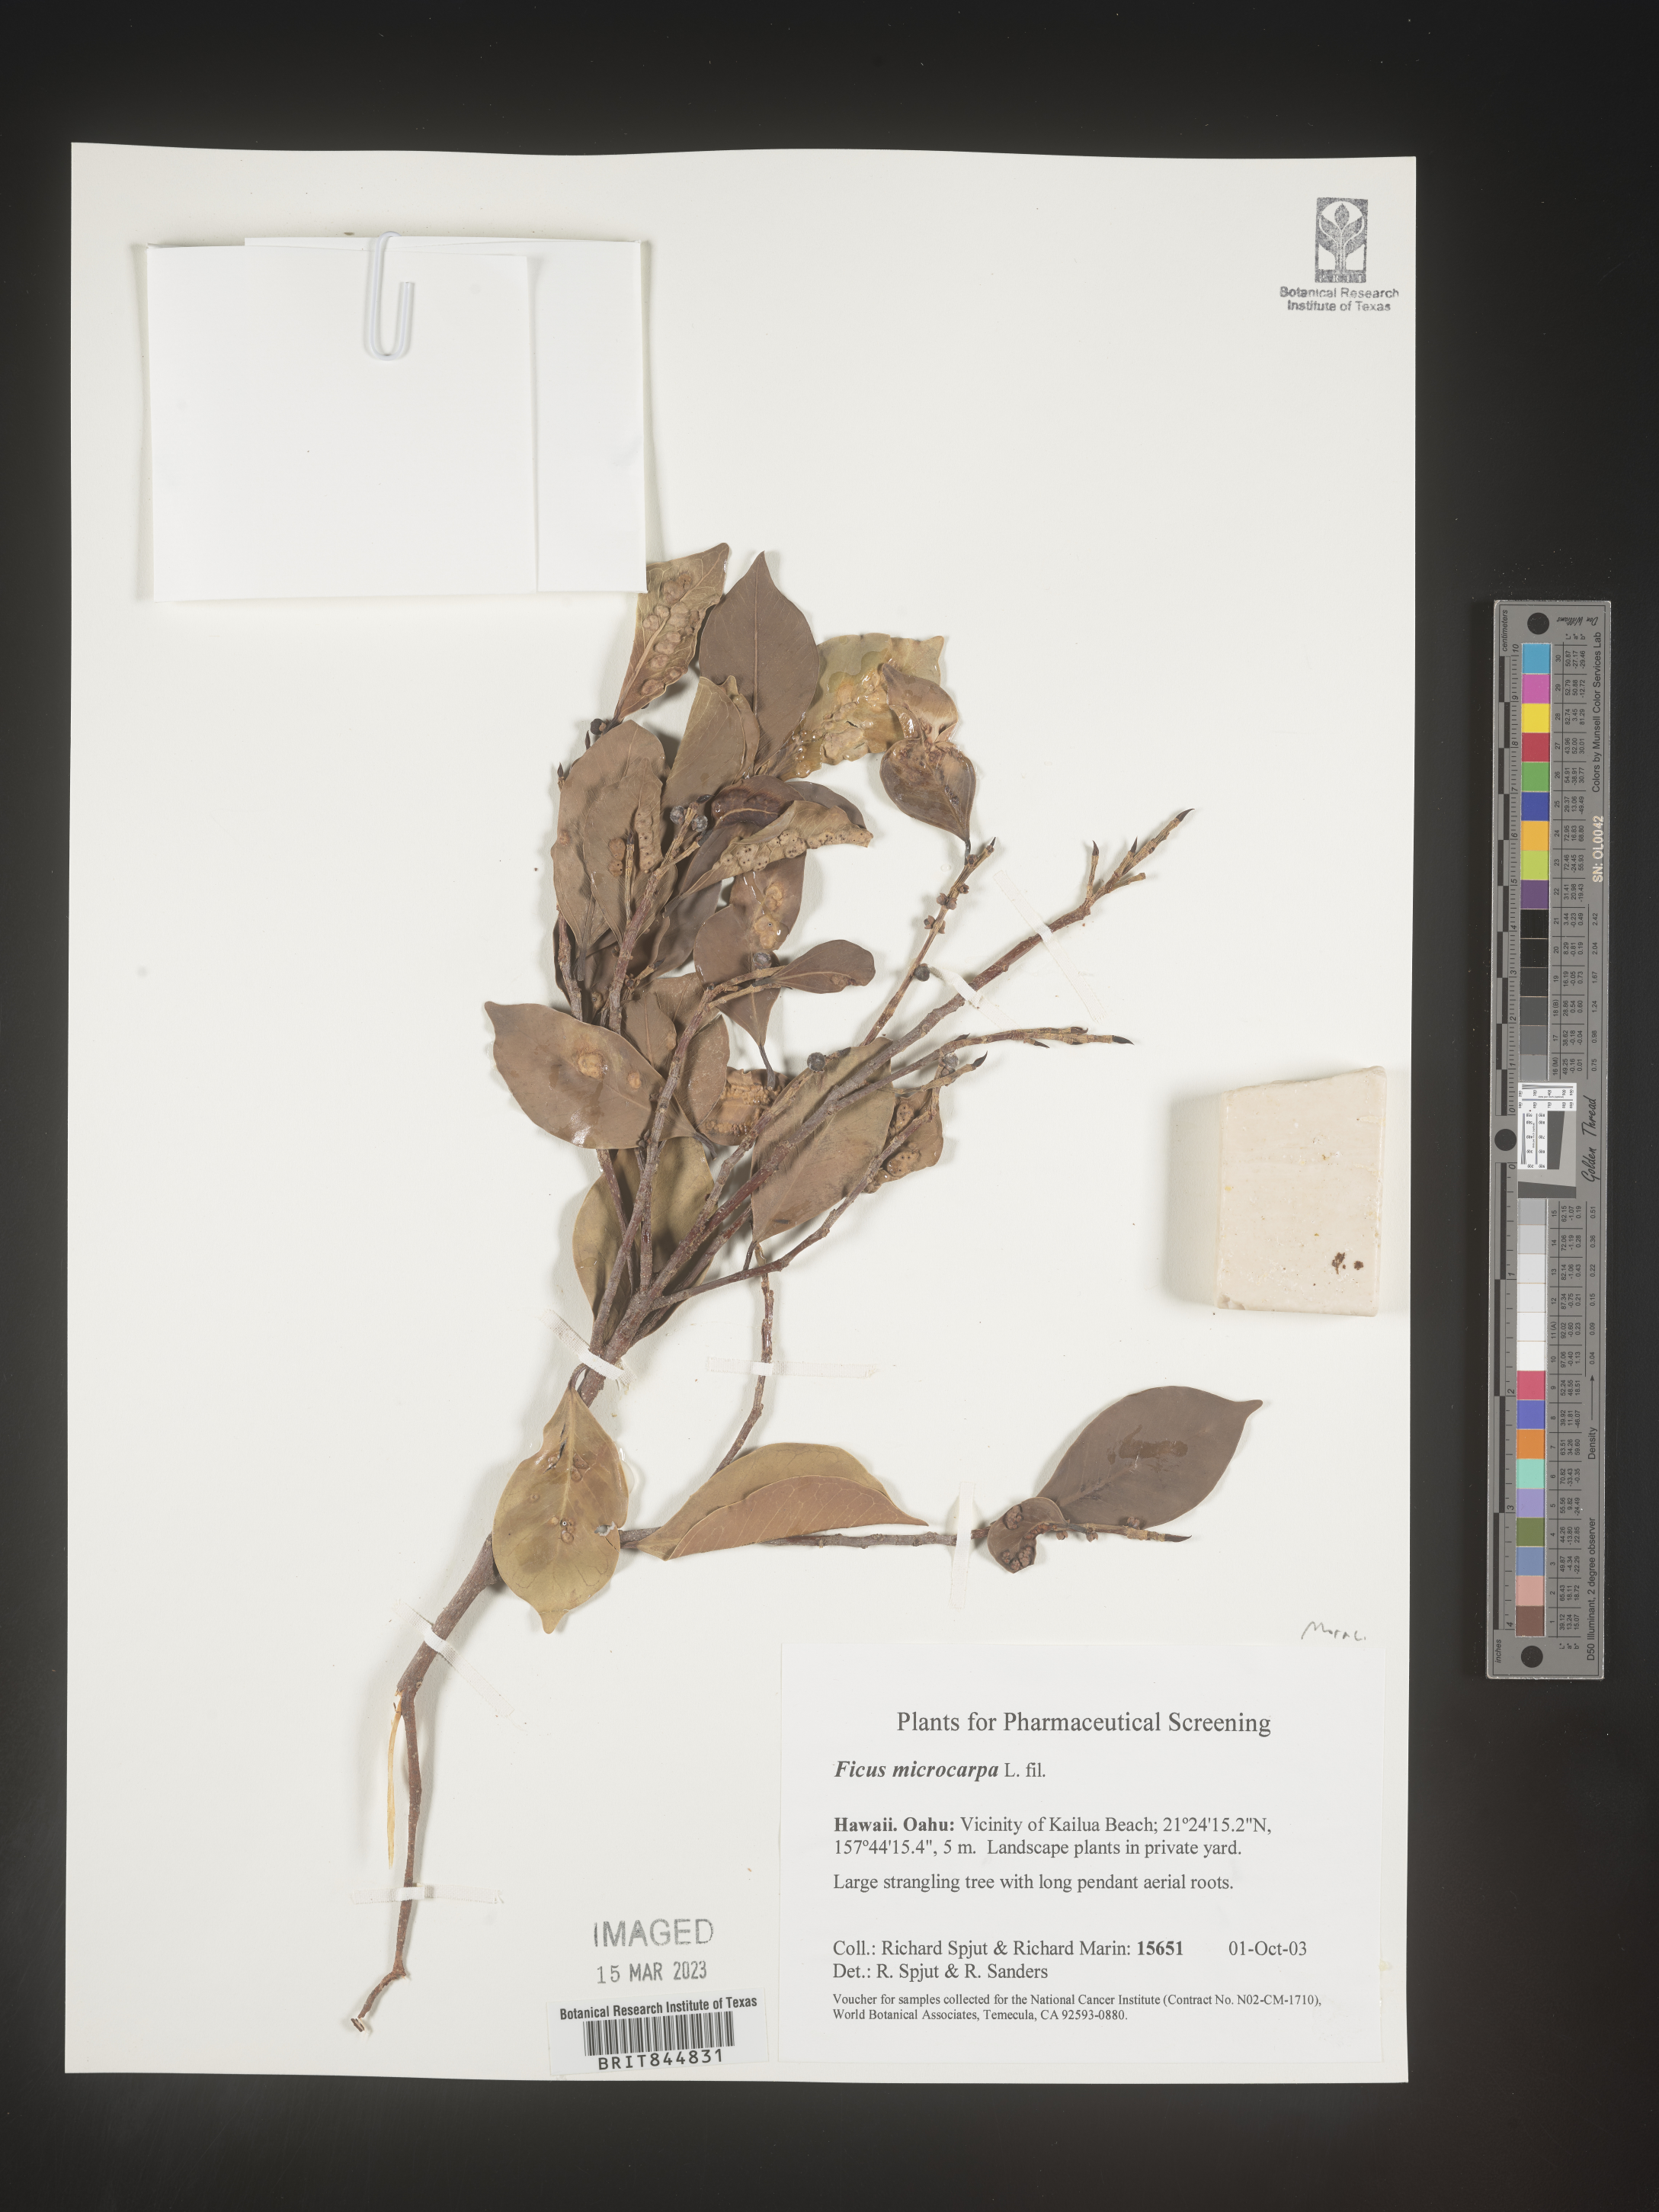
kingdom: Plantae
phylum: Tracheophyta
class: Magnoliopsida
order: Rosales
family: Moraceae
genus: Ficus
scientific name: Ficus
